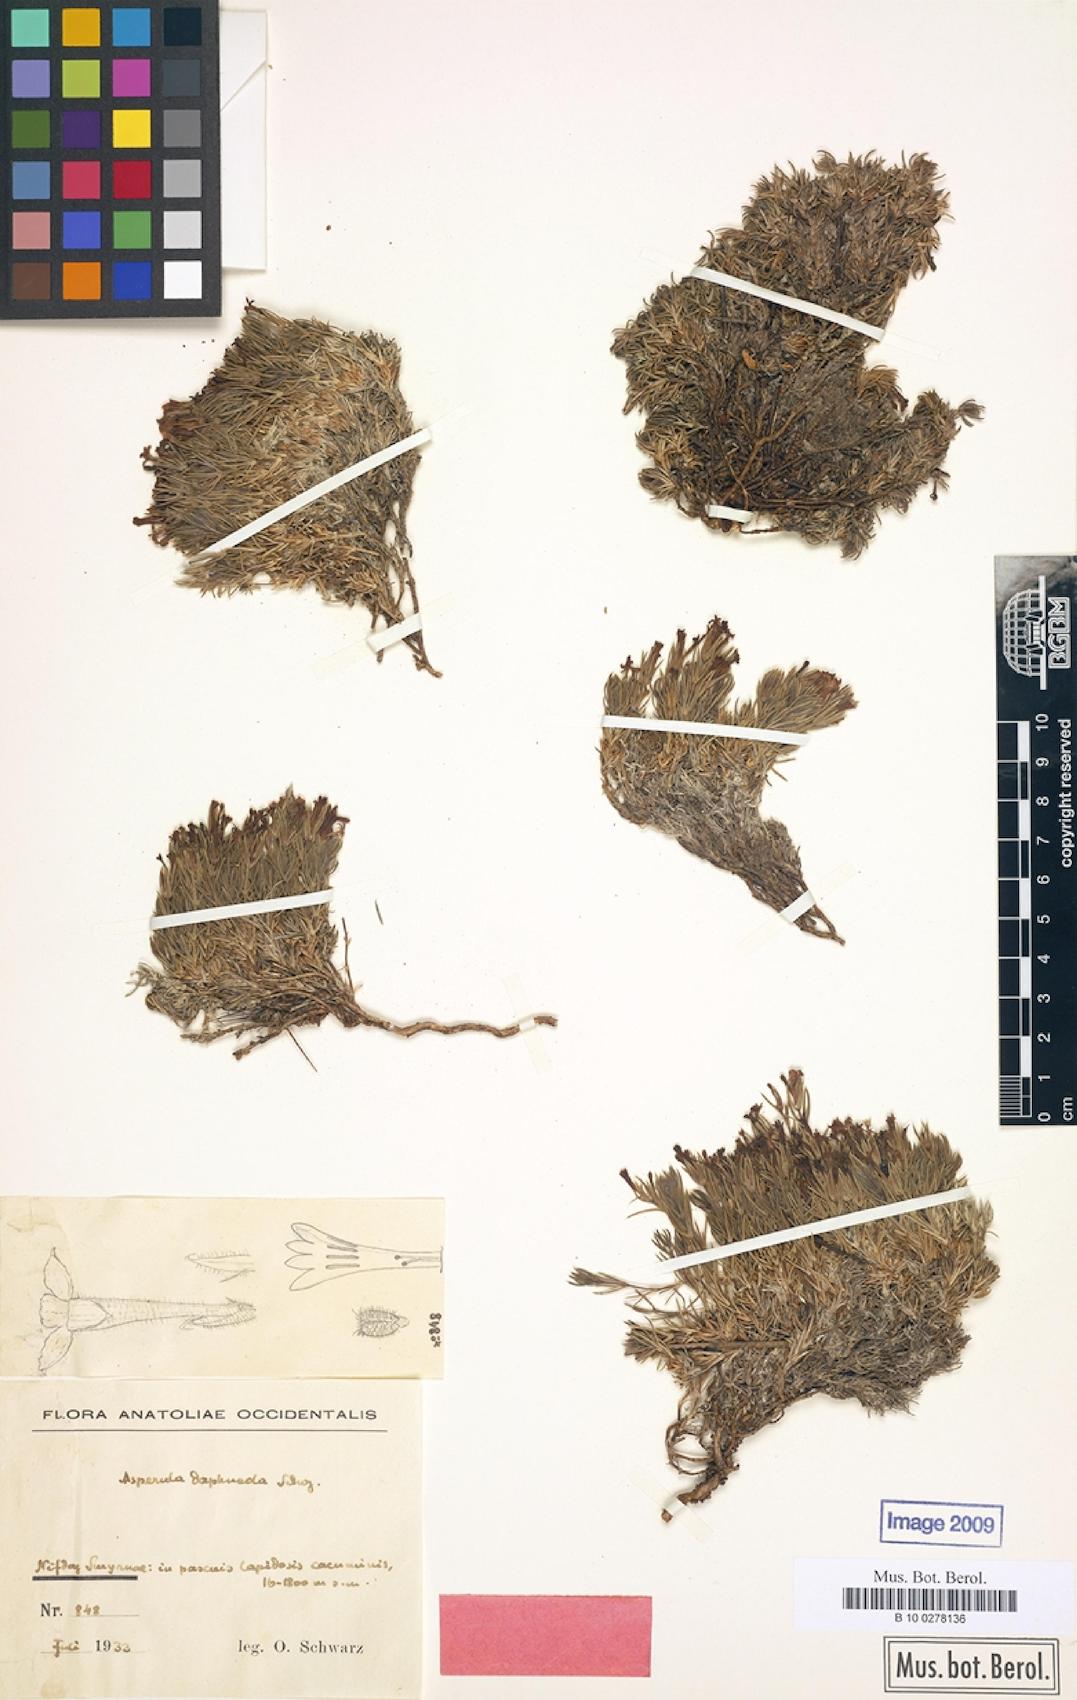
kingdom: Plantae
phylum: Tracheophyta
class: Magnoliopsida
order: Gentianales
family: Rubiaceae
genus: Asperula
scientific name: Asperula
